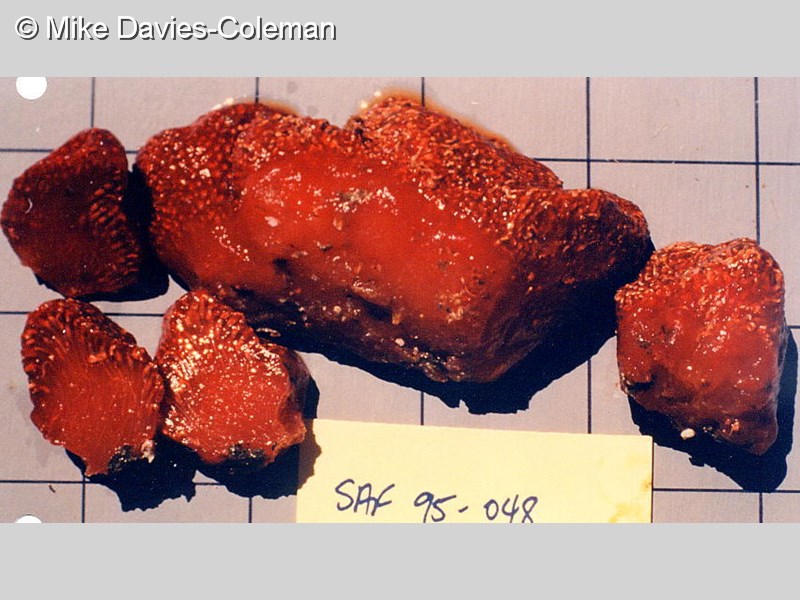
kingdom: Animalia
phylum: Chordata
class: Ascidiacea
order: Aplousobranchia
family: Polycitoridae
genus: Eudistoma
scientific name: Eudistoma
